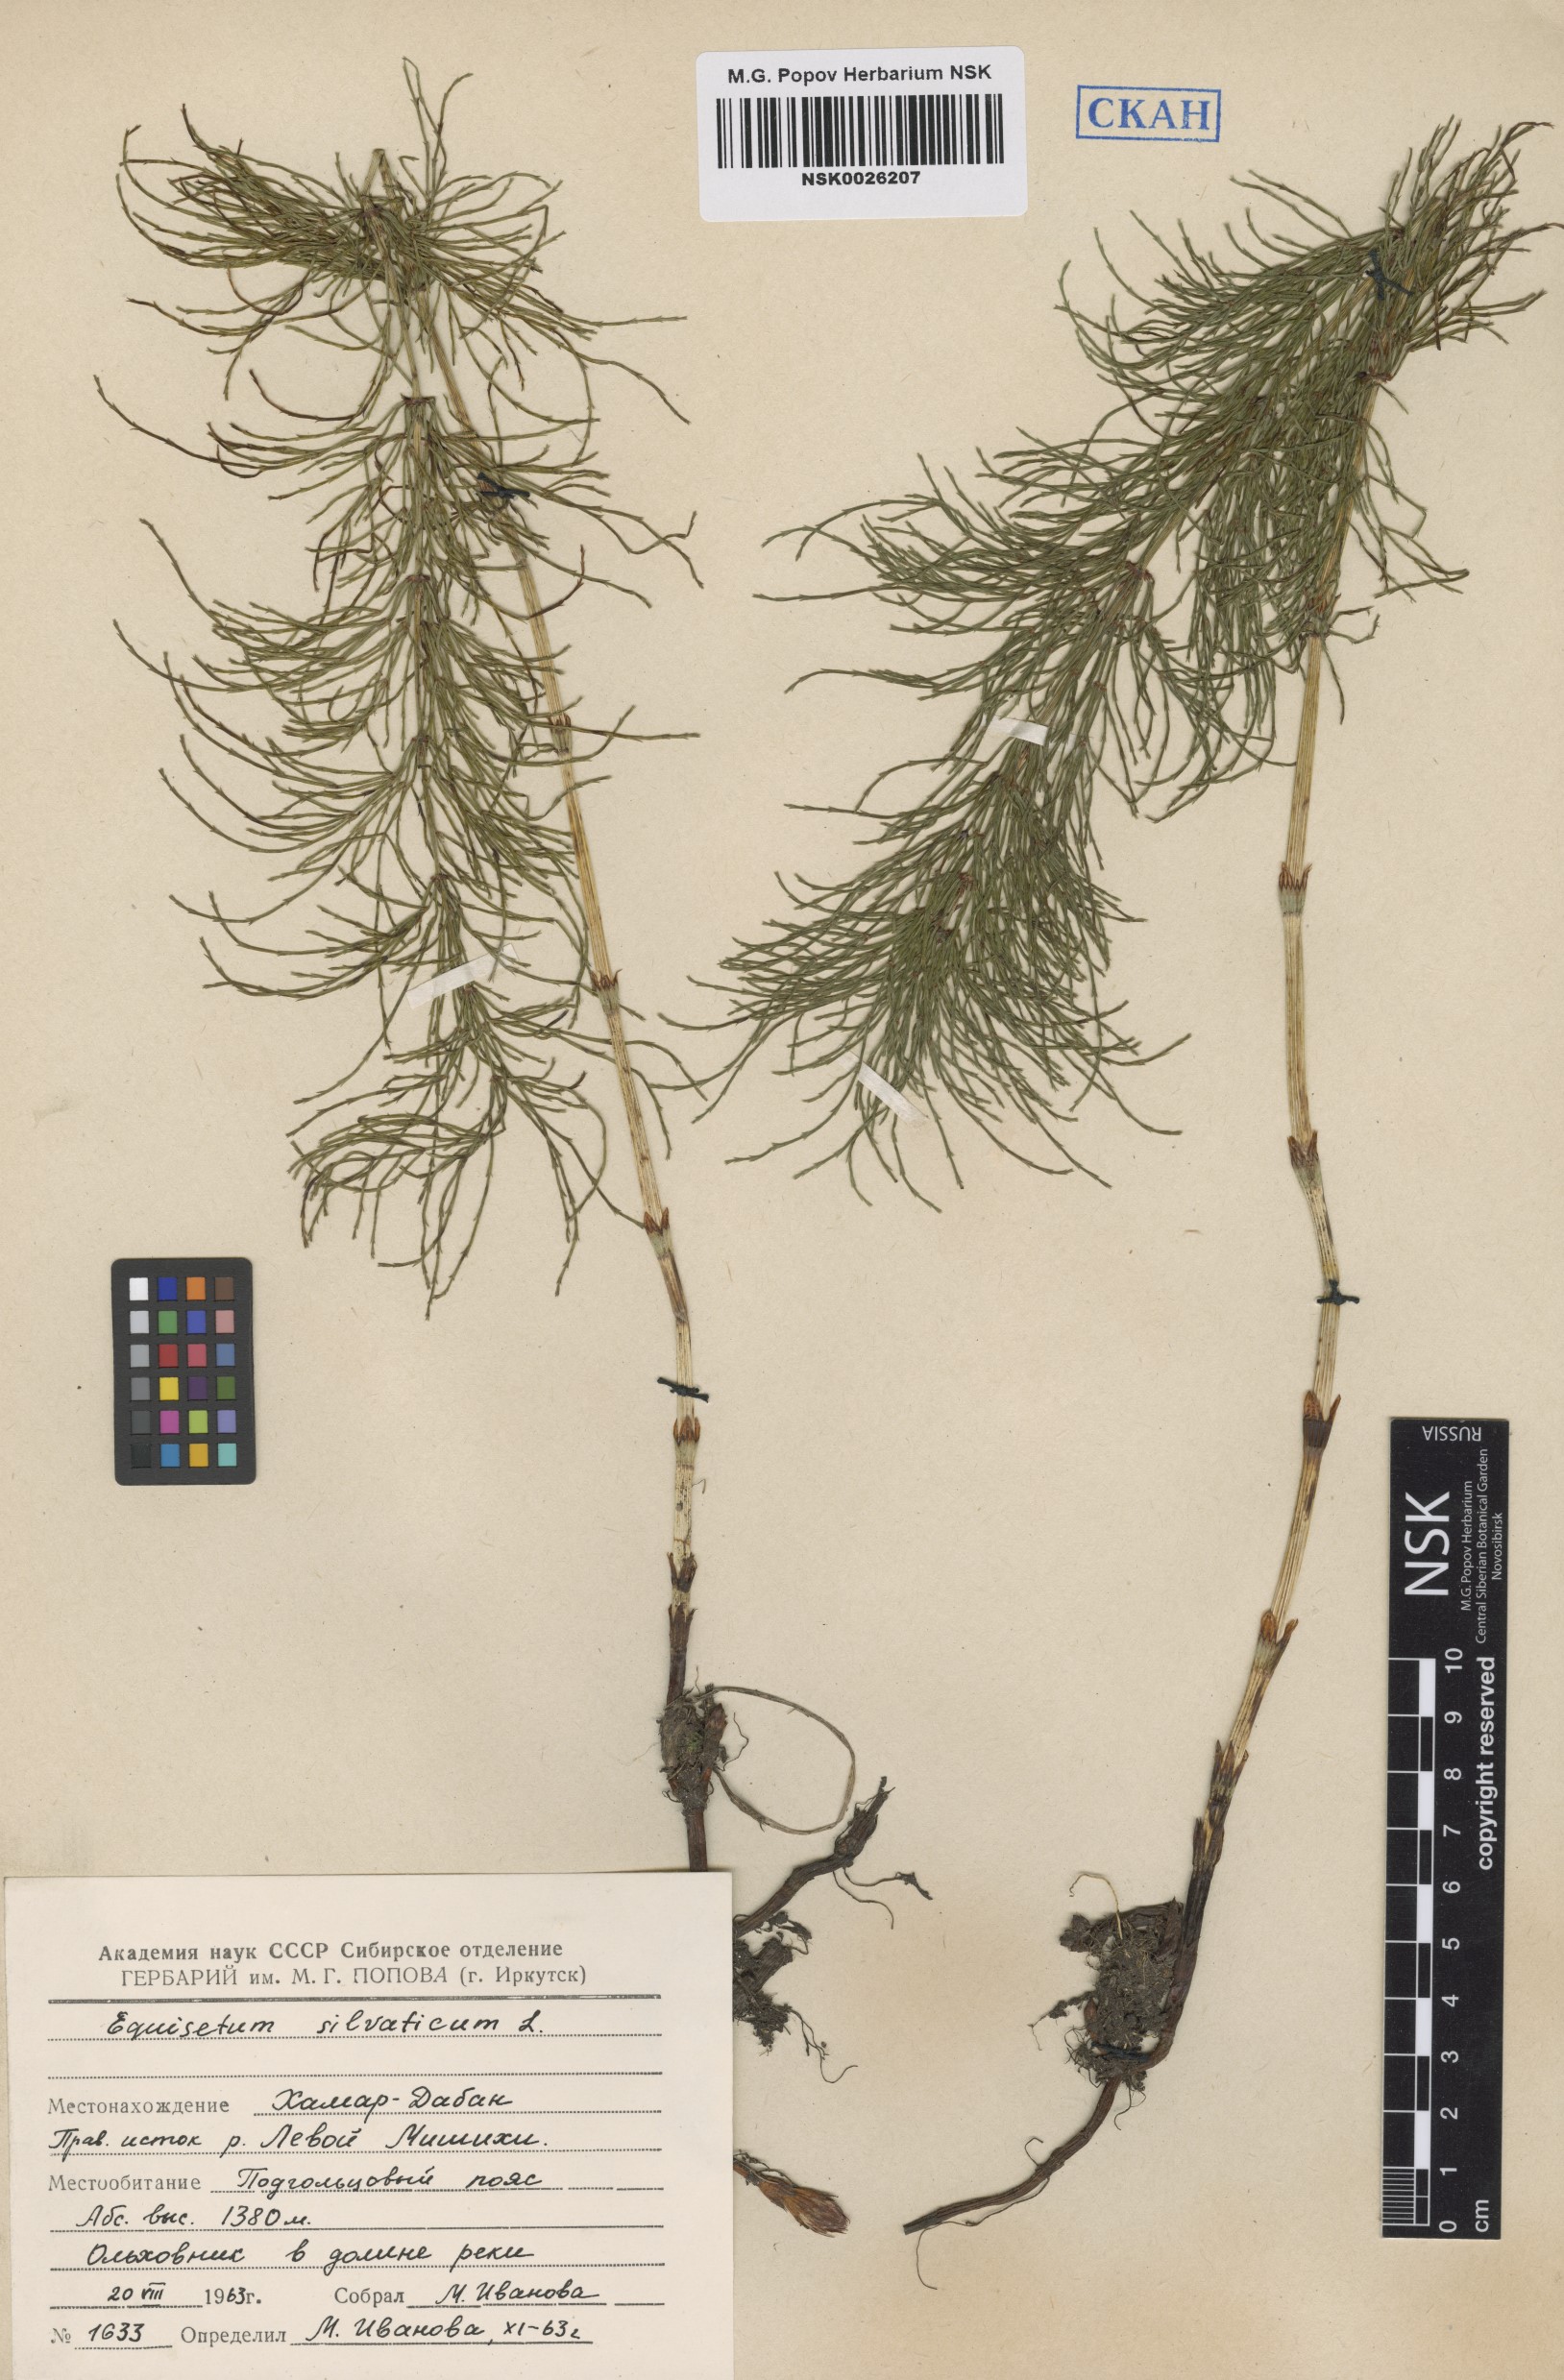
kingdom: Plantae
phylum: Tracheophyta
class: Polypodiopsida
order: Equisetales
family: Equisetaceae
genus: Equisetum
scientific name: Equisetum sylvaticum
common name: Wood horsetail
